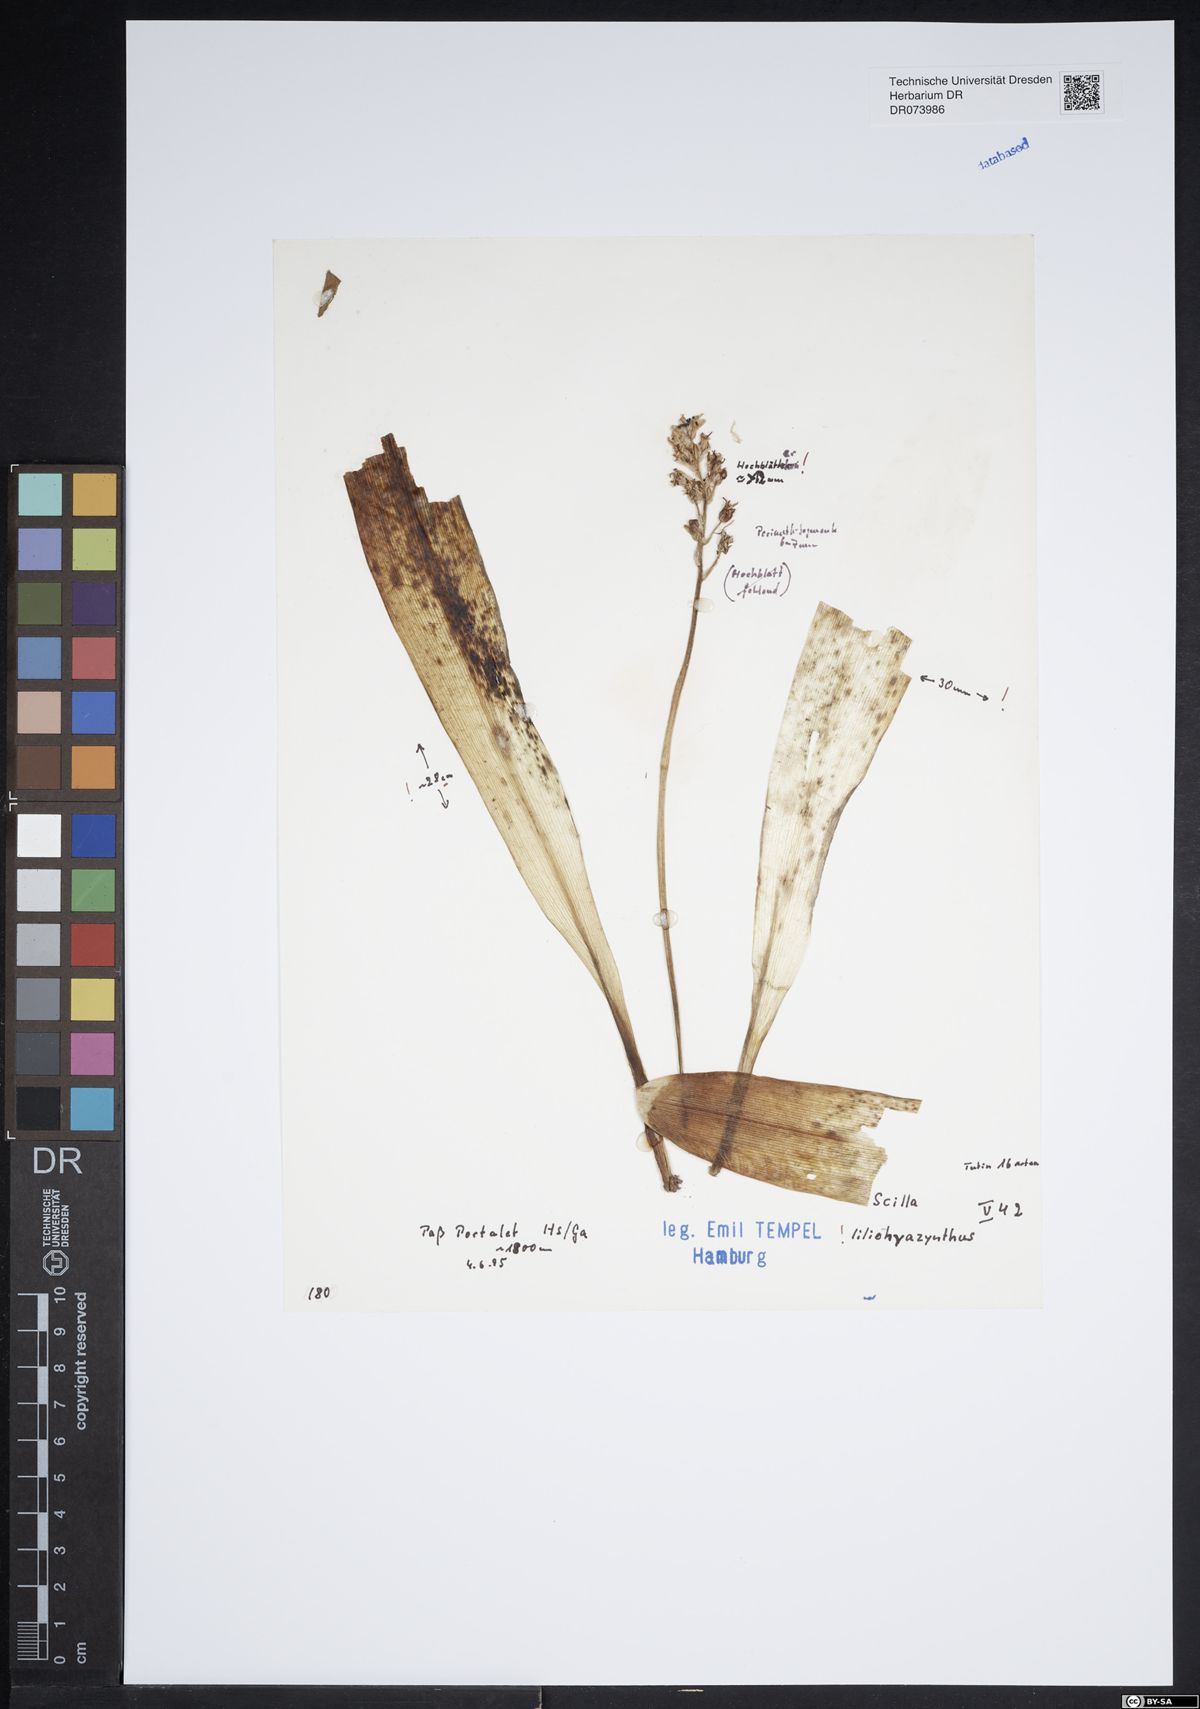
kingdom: Plantae
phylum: Tracheophyta
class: Liliopsida
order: Asparagales
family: Asparagaceae
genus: Scilla
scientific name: Scilla lilio-hyacinthus
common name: Pyrenean squill
